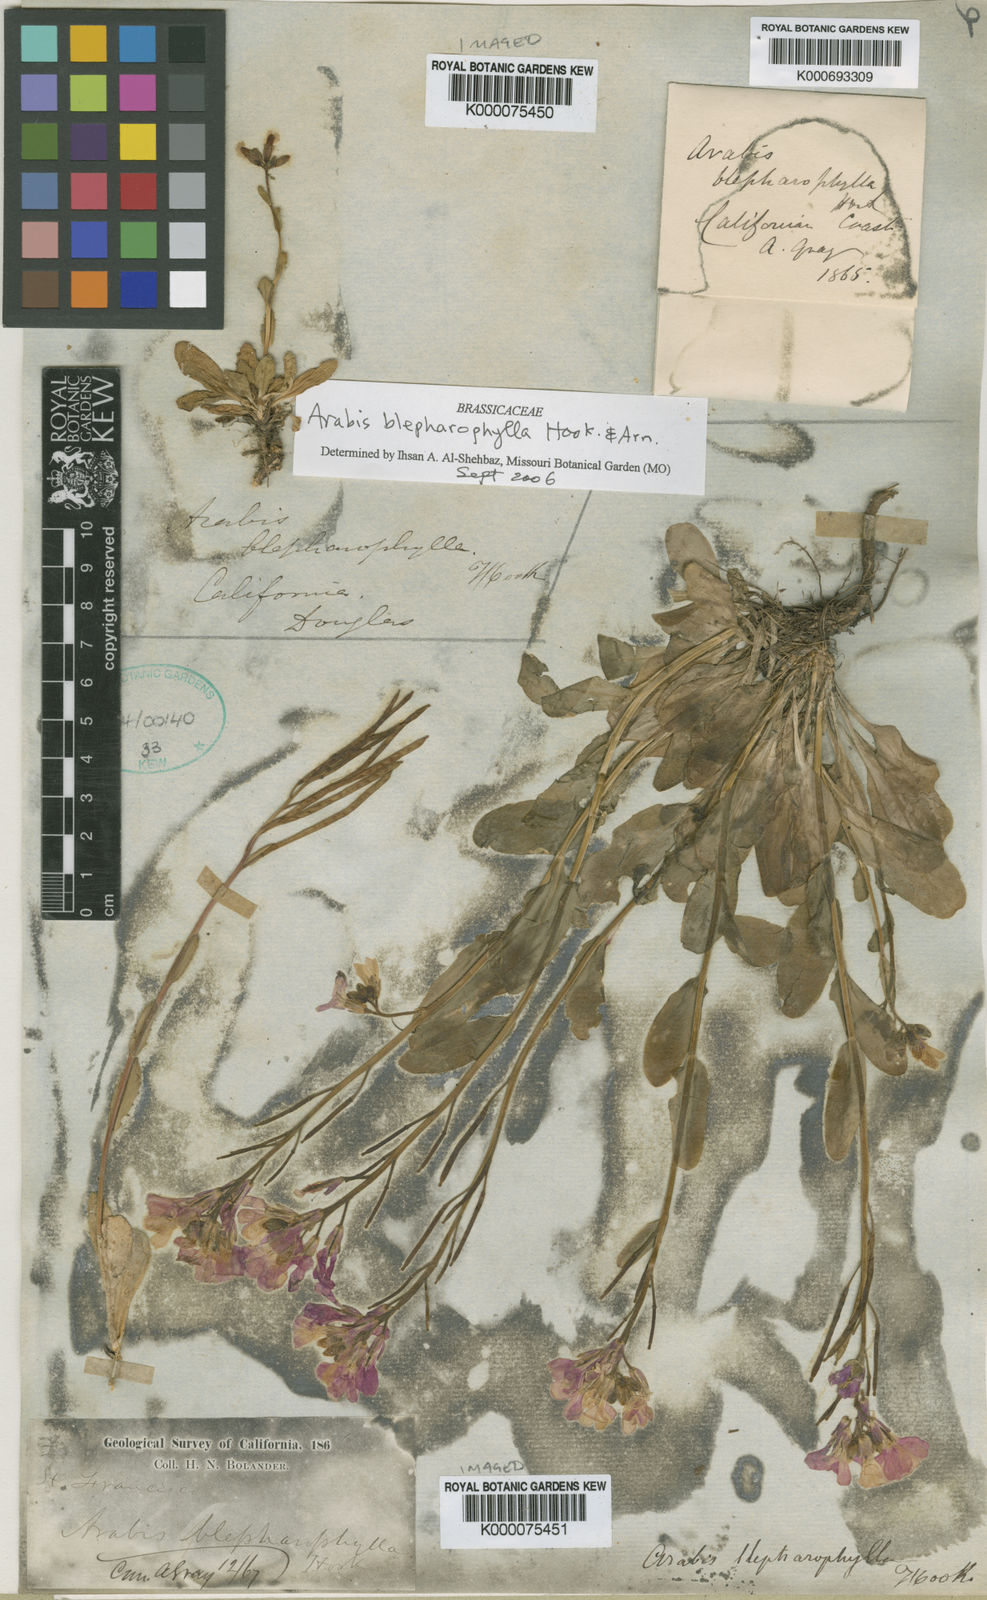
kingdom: Plantae
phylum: Tracheophyta
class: Magnoliopsida
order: Brassicales
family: Brassicaceae
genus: Arabis
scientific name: Arabis blepharophylla
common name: Rose rockcress
